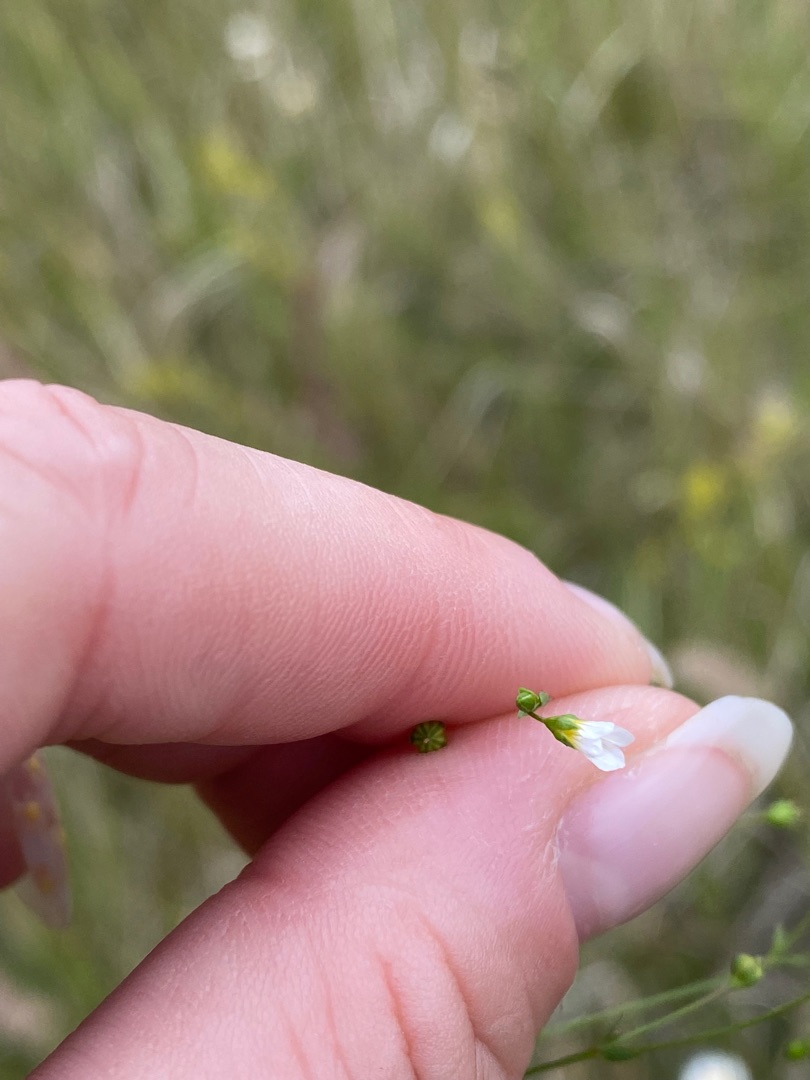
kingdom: Plantae
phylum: Tracheophyta
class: Magnoliopsida
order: Malpighiales
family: Linaceae
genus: Linum
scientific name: Linum catharticum
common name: Vild hør
